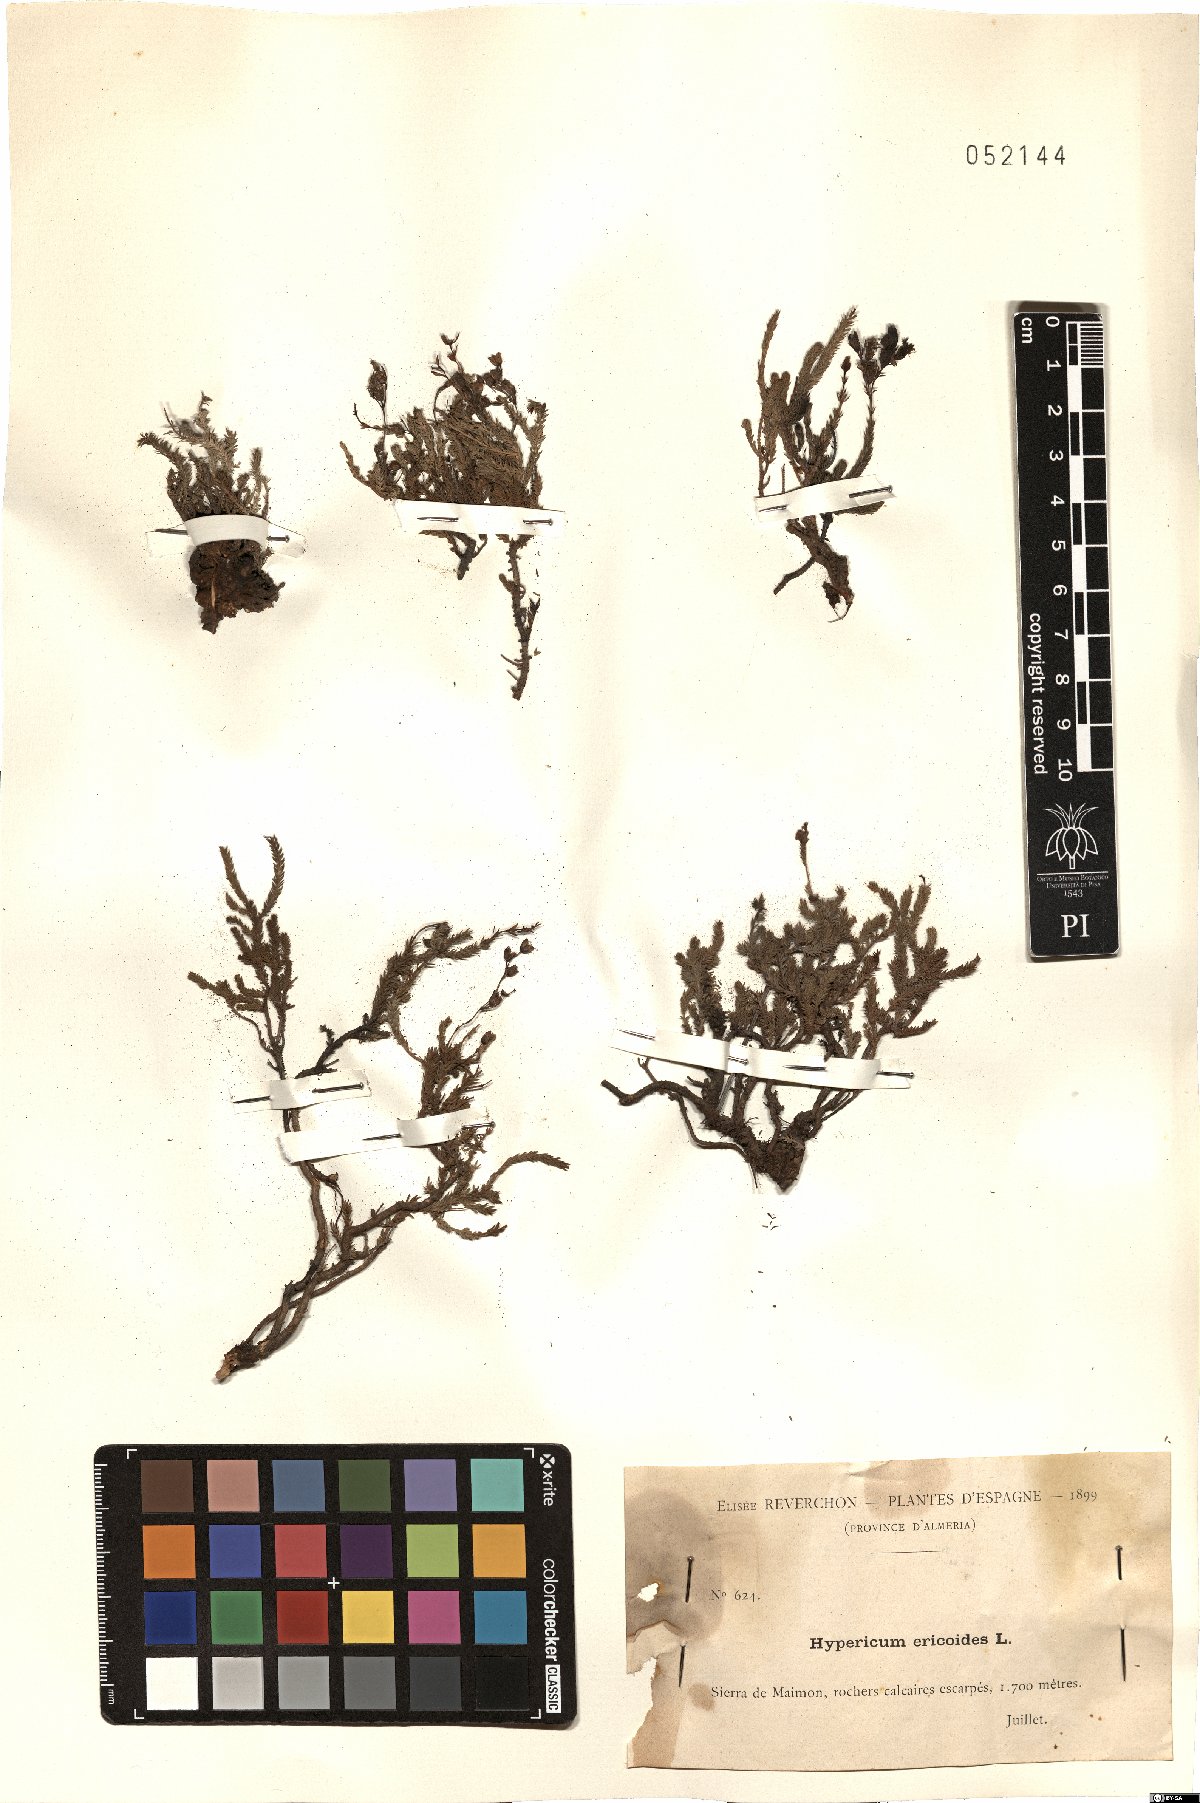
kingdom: Plantae
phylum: Tracheophyta
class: Magnoliopsida
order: Malpighiales
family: Hypericaceae
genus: Hypericum
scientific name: Hypericum ericoides
